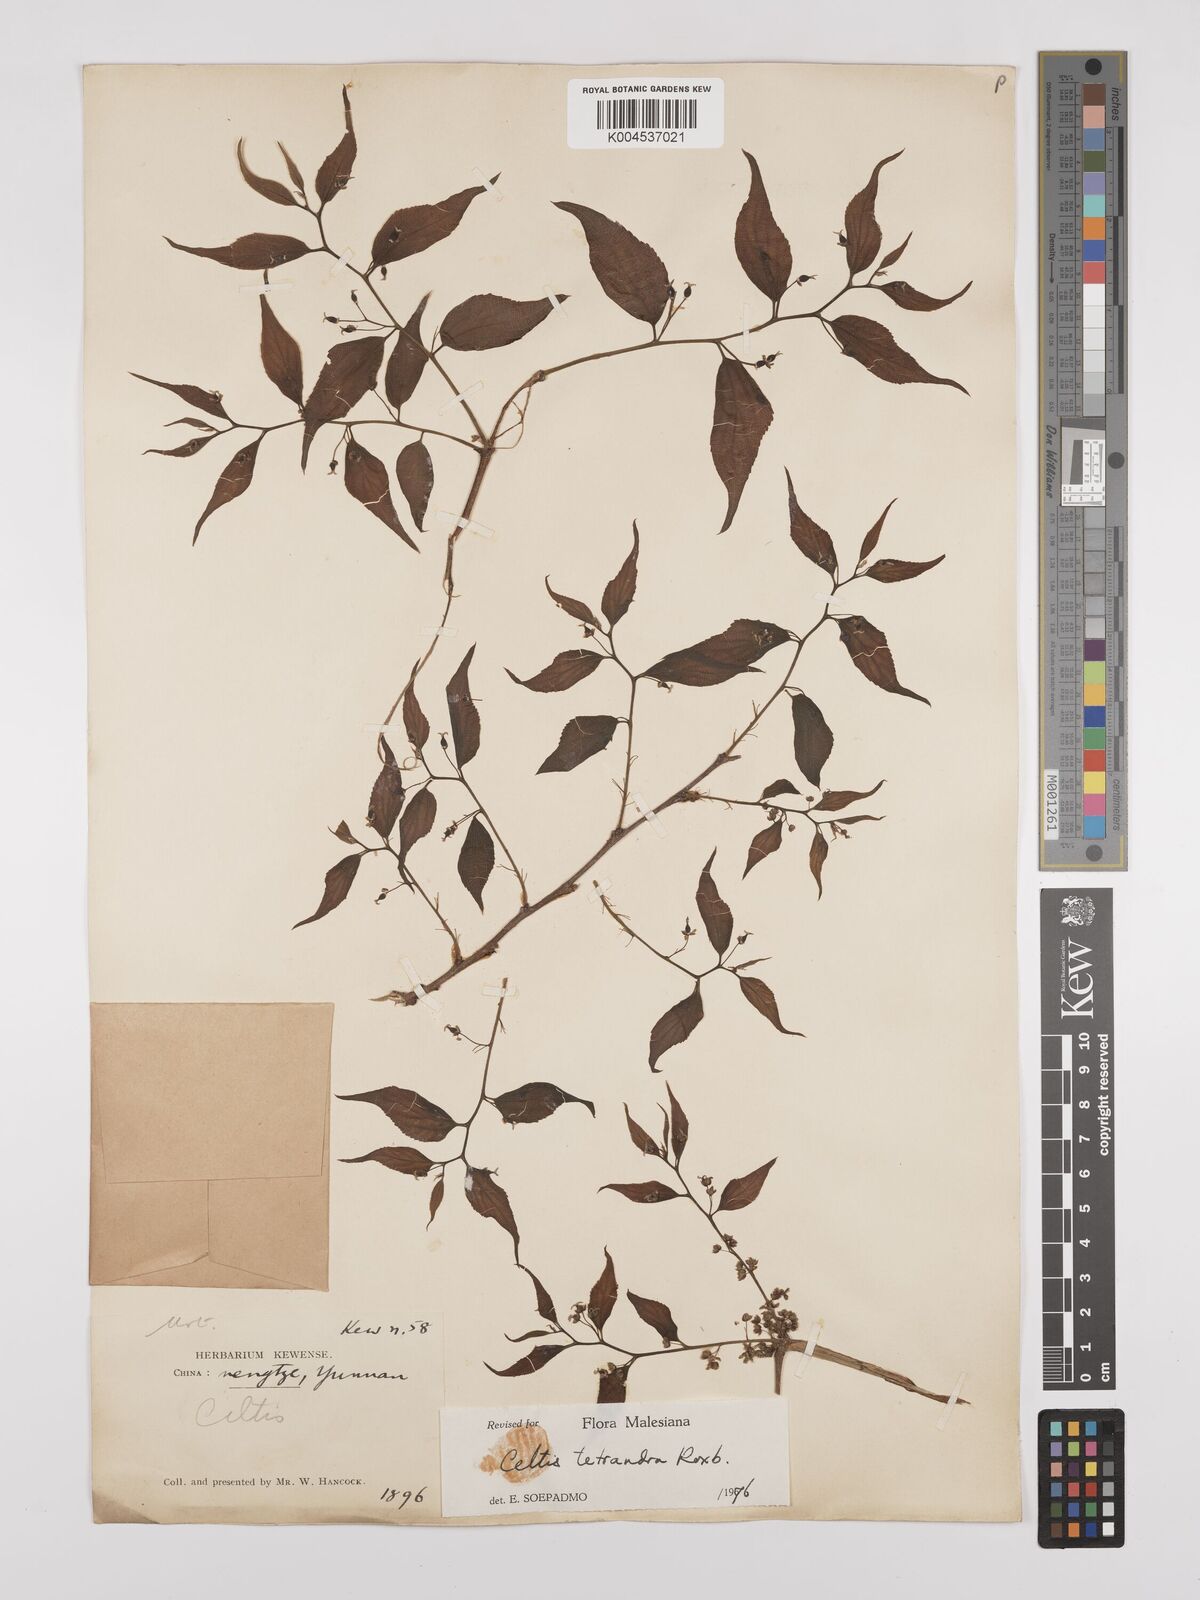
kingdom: Plantae
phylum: Tracheophyta
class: Magnoliopsida
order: Rosales
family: Cannabaceae
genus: Celtis
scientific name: Celtis tetrandra
